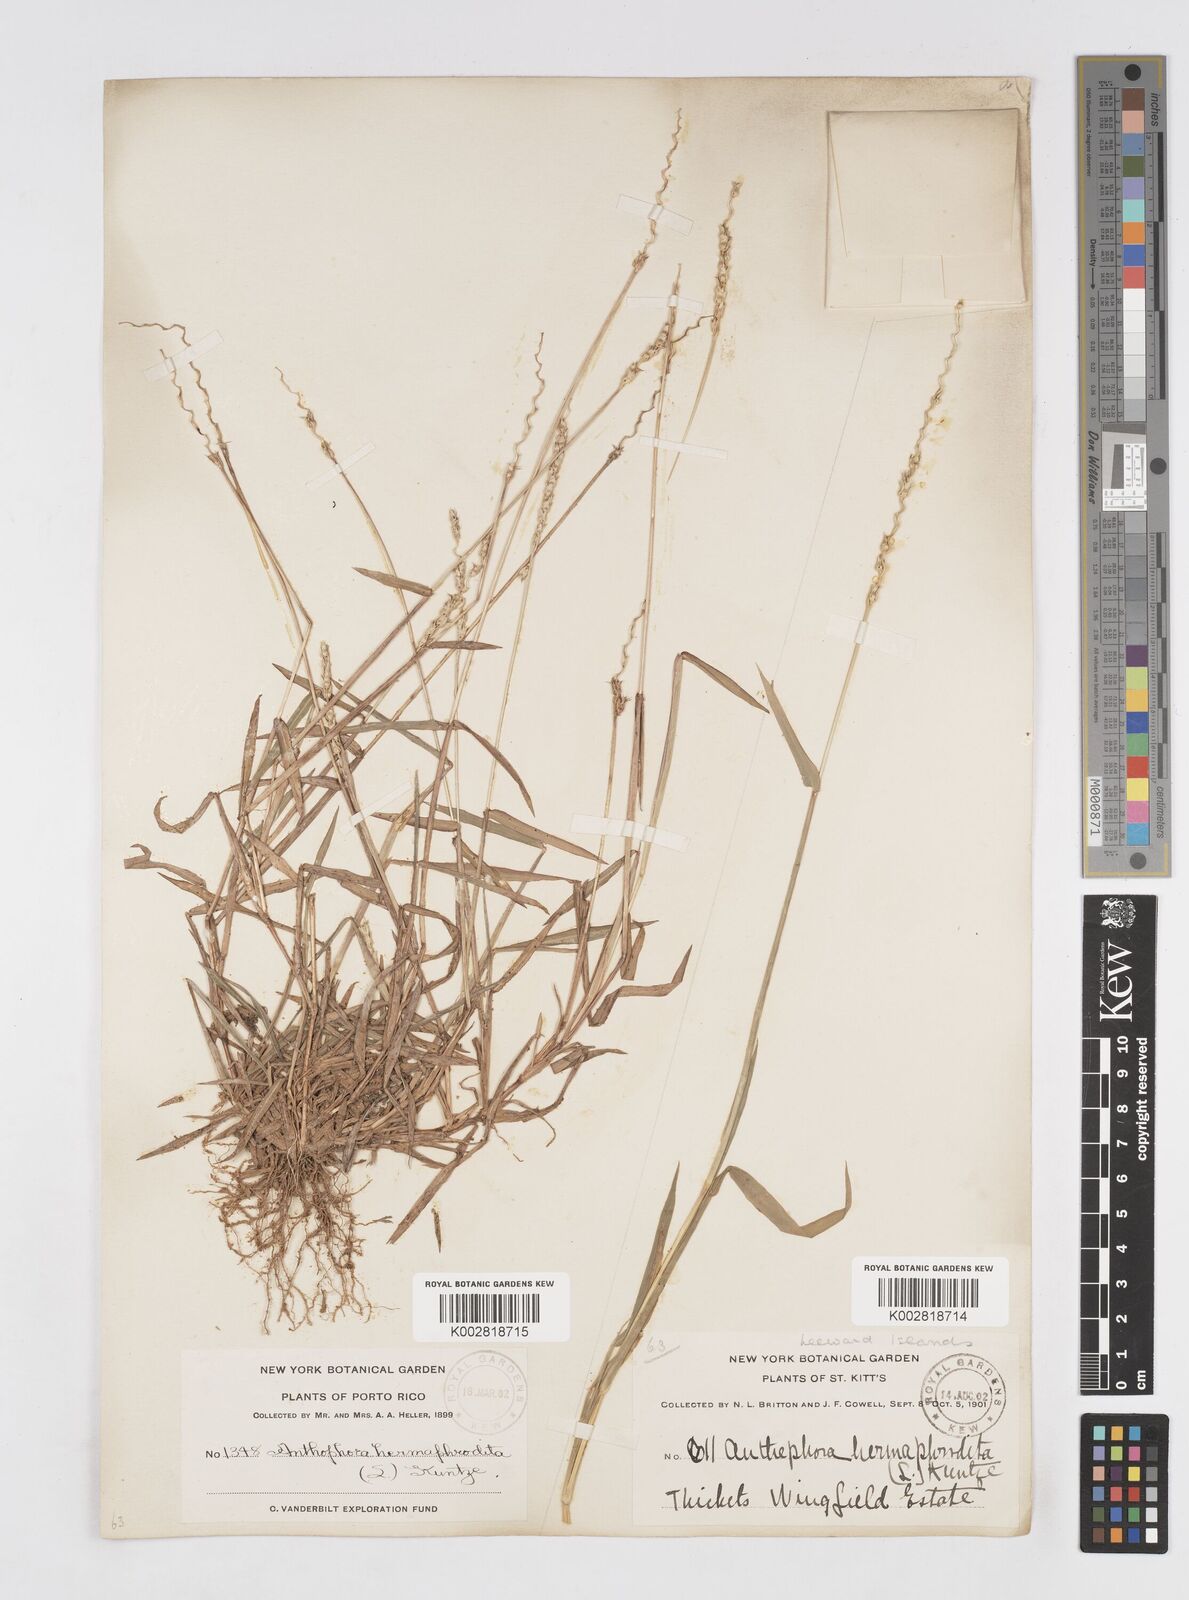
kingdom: Plantae
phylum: Tracheophyta
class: Liliopsida
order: Poales
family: Poaceae
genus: Anthephora
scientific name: Anthephora hermaphrodita
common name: Oldfield grass
